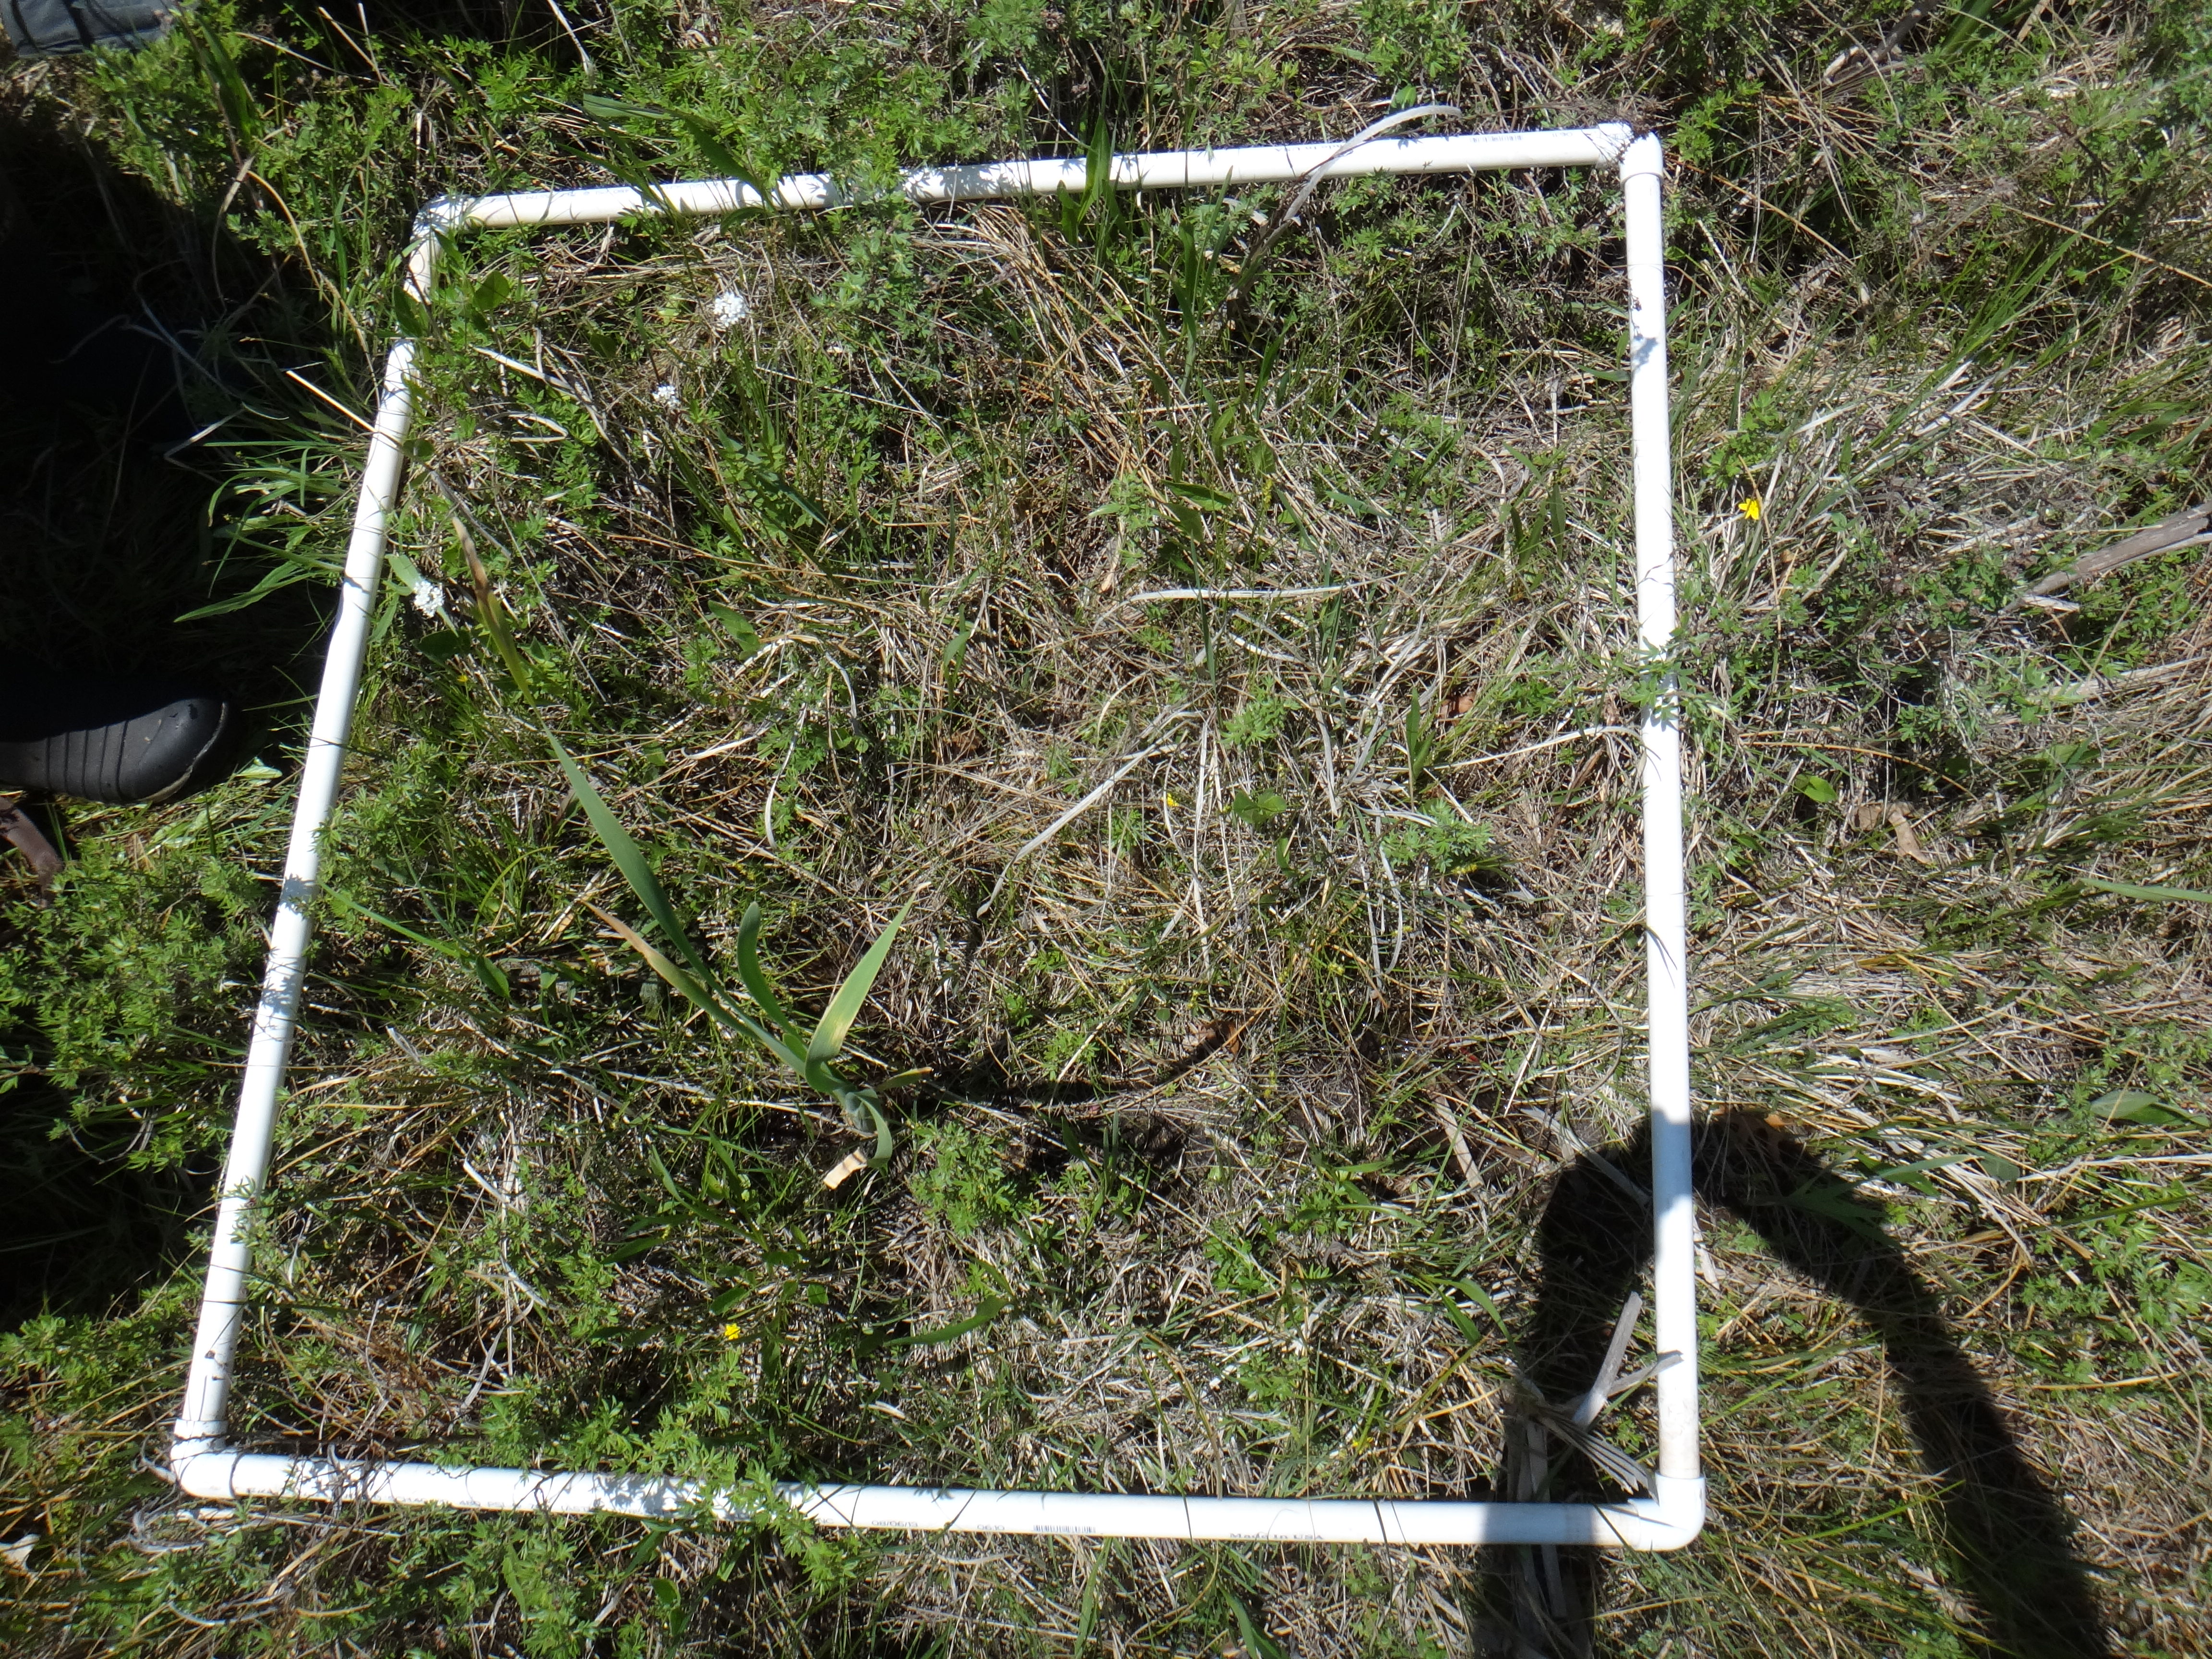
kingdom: Plantae
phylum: Tracheophyta
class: Liliopsida
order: Poales
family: Typhaceae
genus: Typha
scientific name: Typha latifolia
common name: Broadleaf cattail
